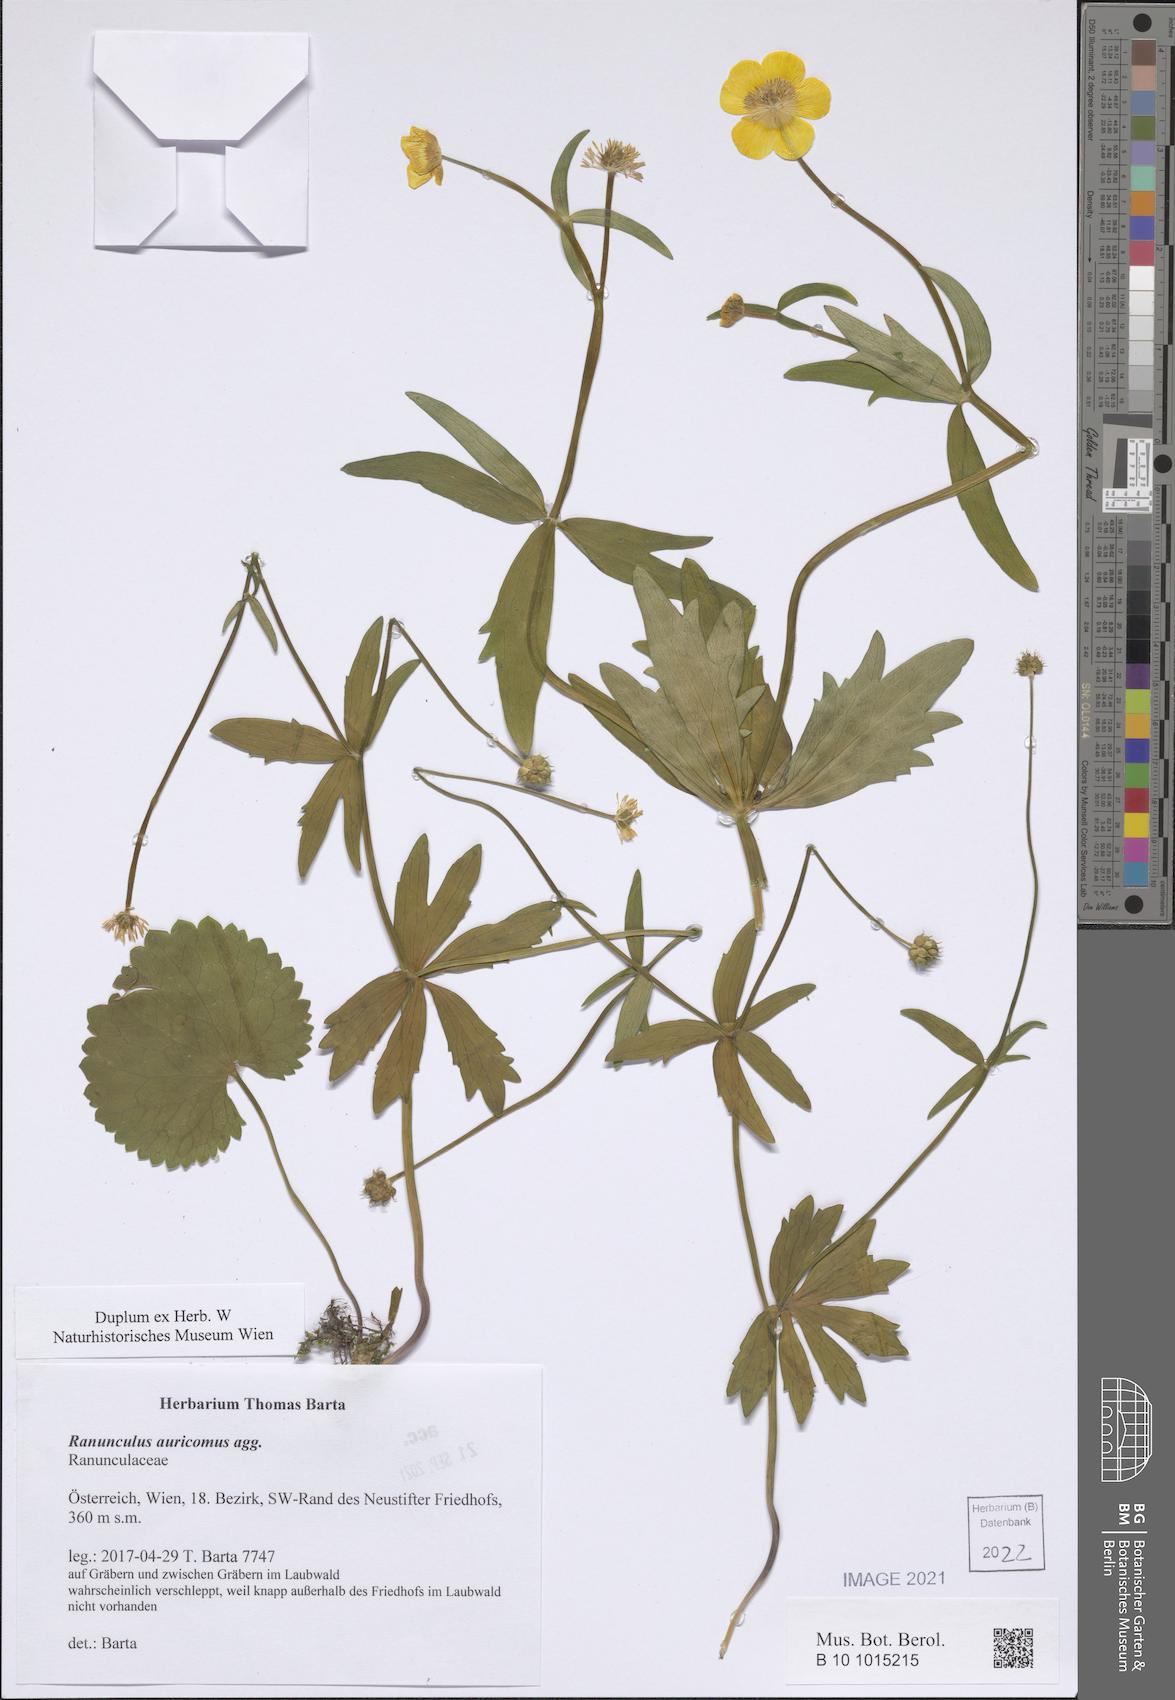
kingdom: Plantae
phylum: Tracheophyta
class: Magnoliopsida
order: Ranunculales
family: Ranunculaceae
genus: Ranunculus
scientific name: Ranunculus auricomus
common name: Goldilocks buttercup
